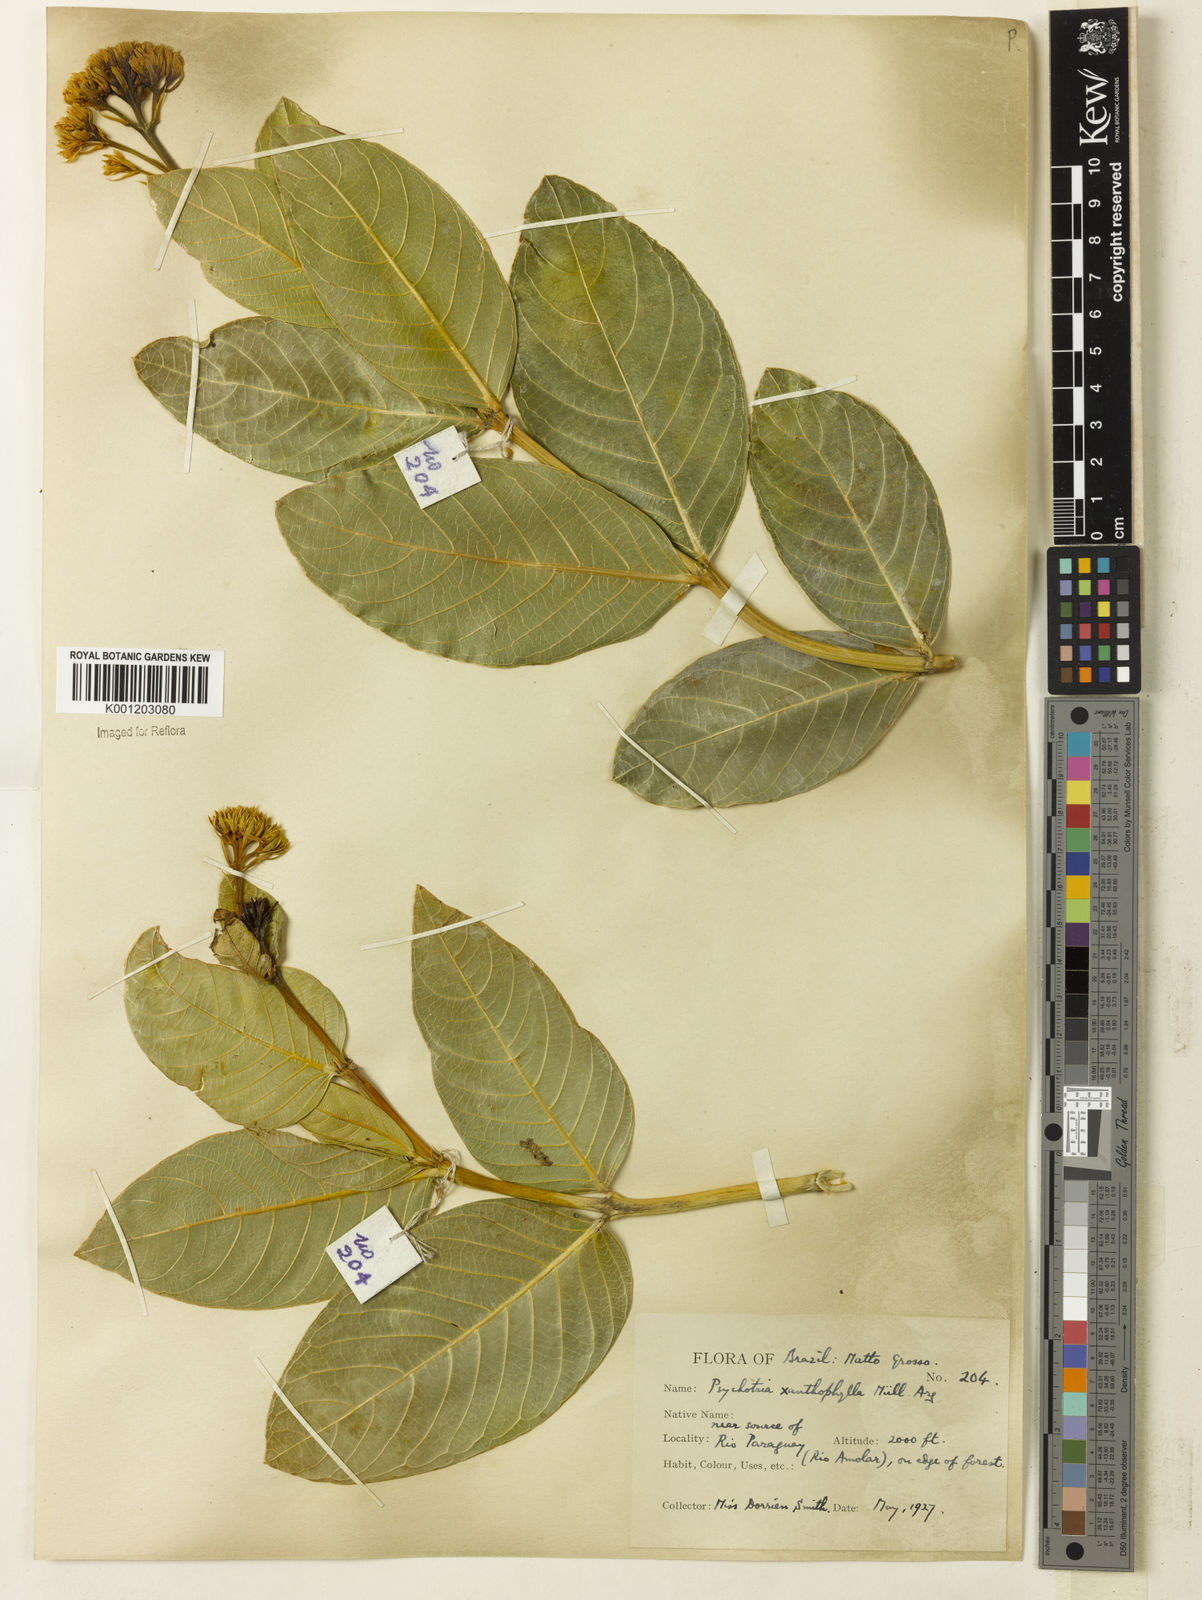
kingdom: Plantae
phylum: Tracheophyta
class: Magnoliopsida
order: Gentianales
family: Rubiaceae
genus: Palicourea
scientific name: Palicourea coriacea
